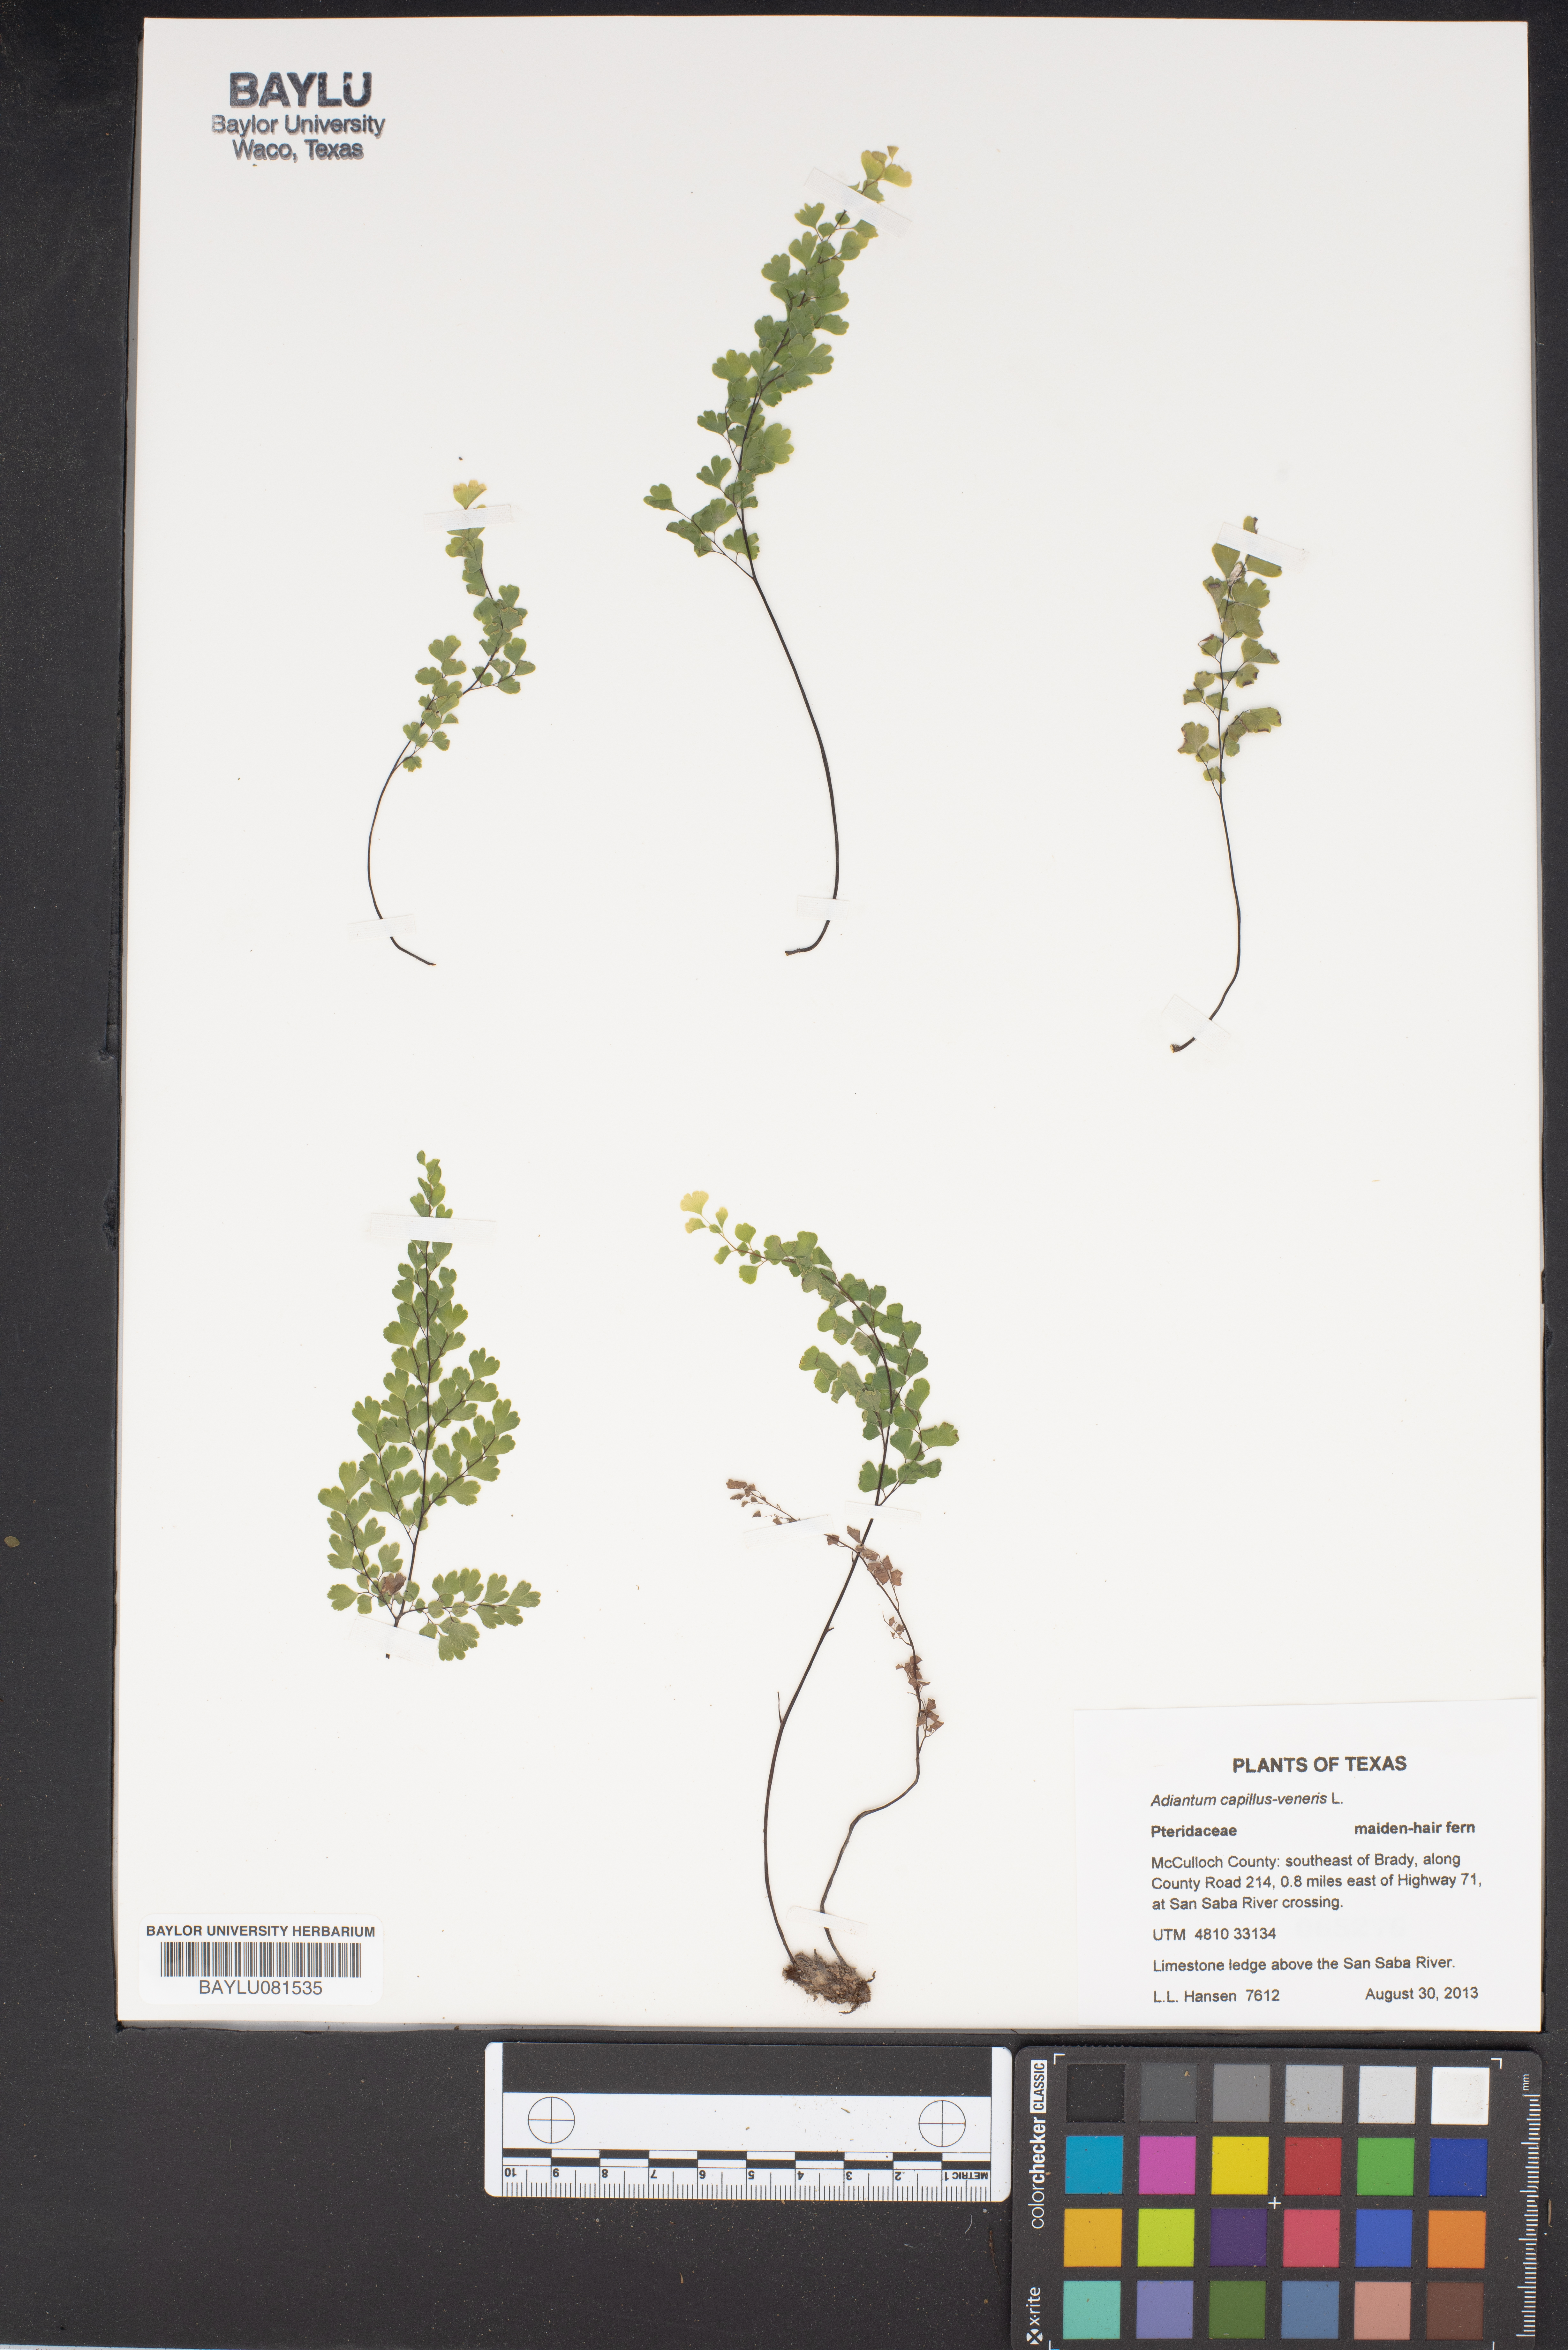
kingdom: Plantae
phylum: Tracheophyta
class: Polypodiopsida
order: Polypodiales
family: Pteridaceae
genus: Adiantum
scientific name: Adiantum capillus-veneris
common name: Maidenhair fern
